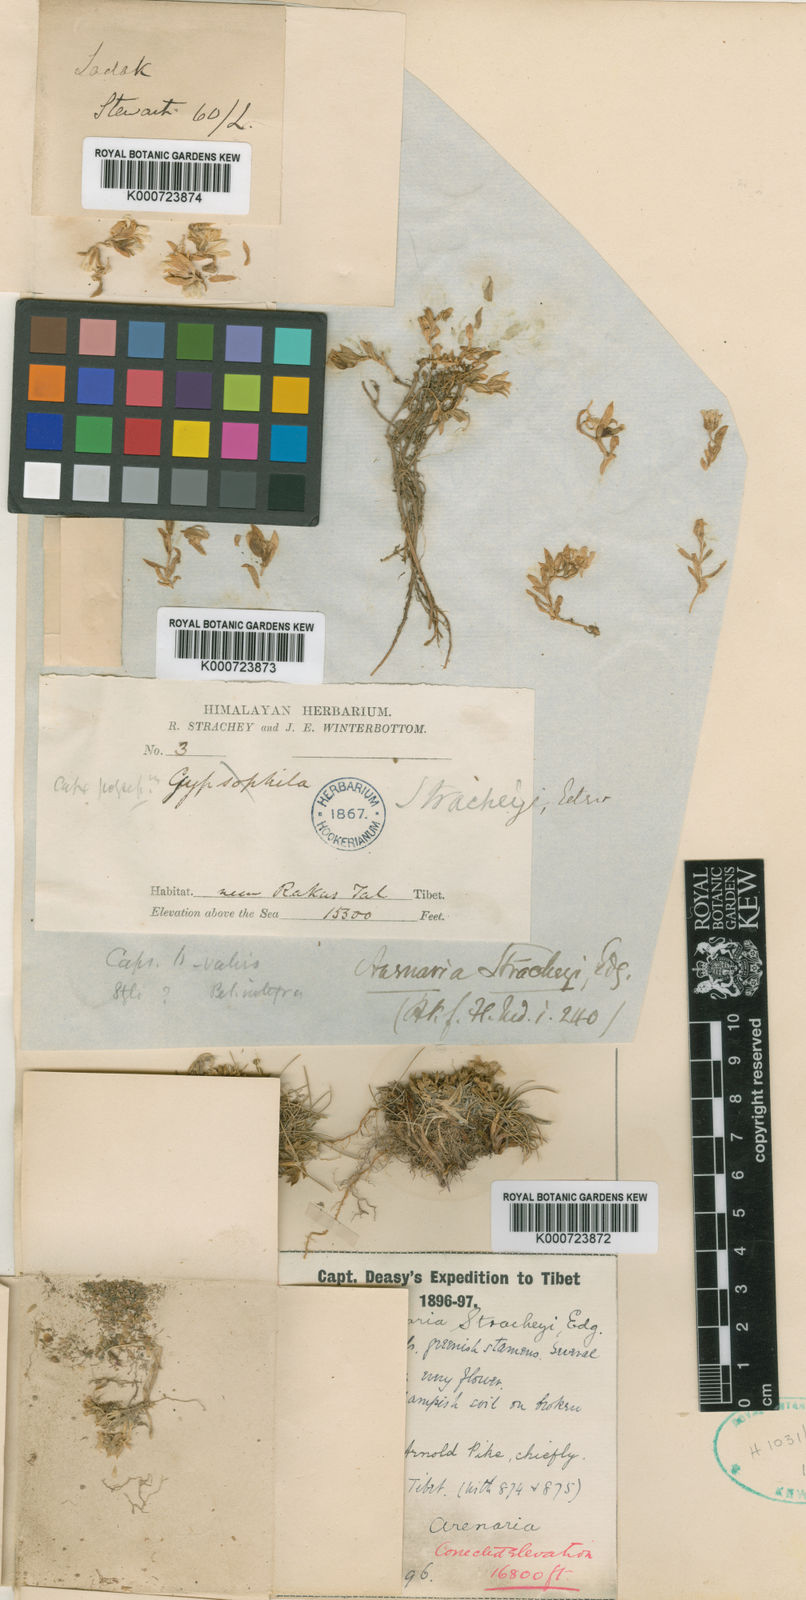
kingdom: Plantae
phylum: Tracheophyta
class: Magnoliopsida
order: Caryophyllales
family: Caryophyllaceae
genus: Shivparvatia
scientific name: Shivparvatia stracheyi
